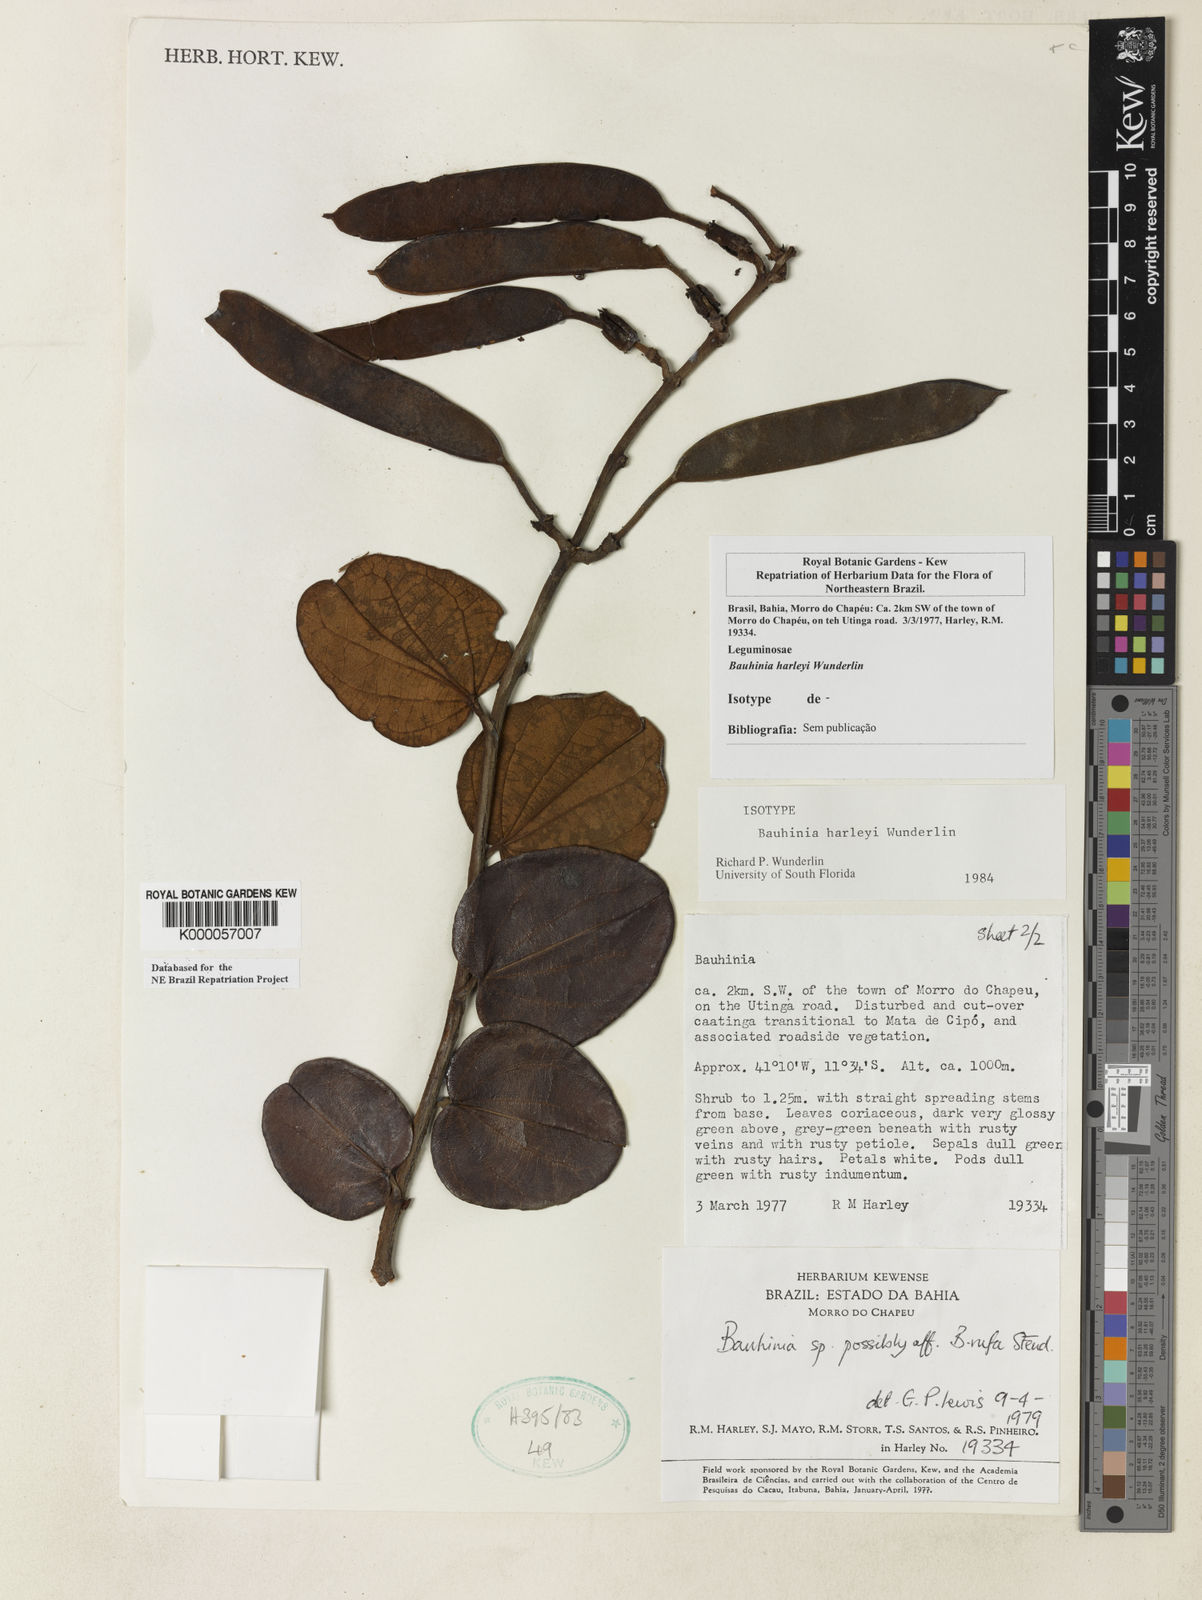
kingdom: Plantae
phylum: Tracheophyta
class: Magnoliopsida
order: Fabales
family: Fabaceae
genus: Bauhinia
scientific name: Bauhinia
